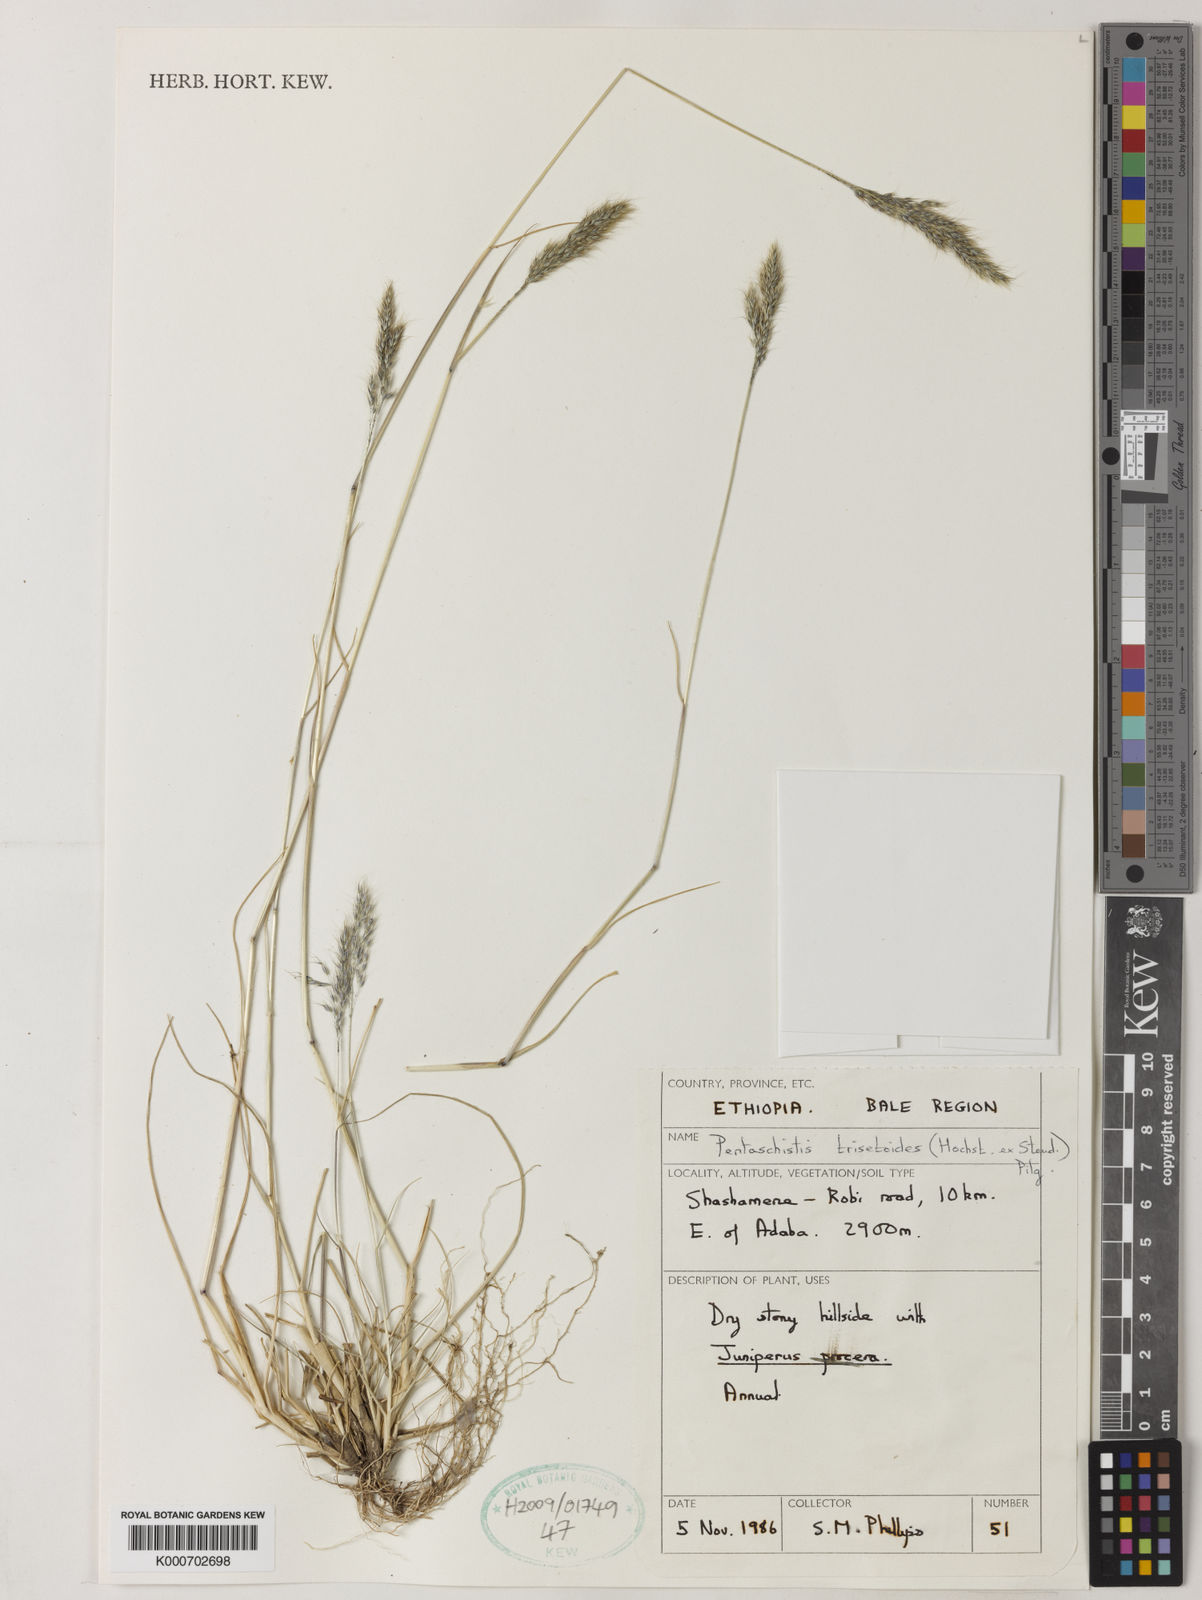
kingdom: Plantae
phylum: Tracheophyta
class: Liliopsida
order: Poales
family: Poaceae
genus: Pentaschistis
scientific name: Pentaschistis
